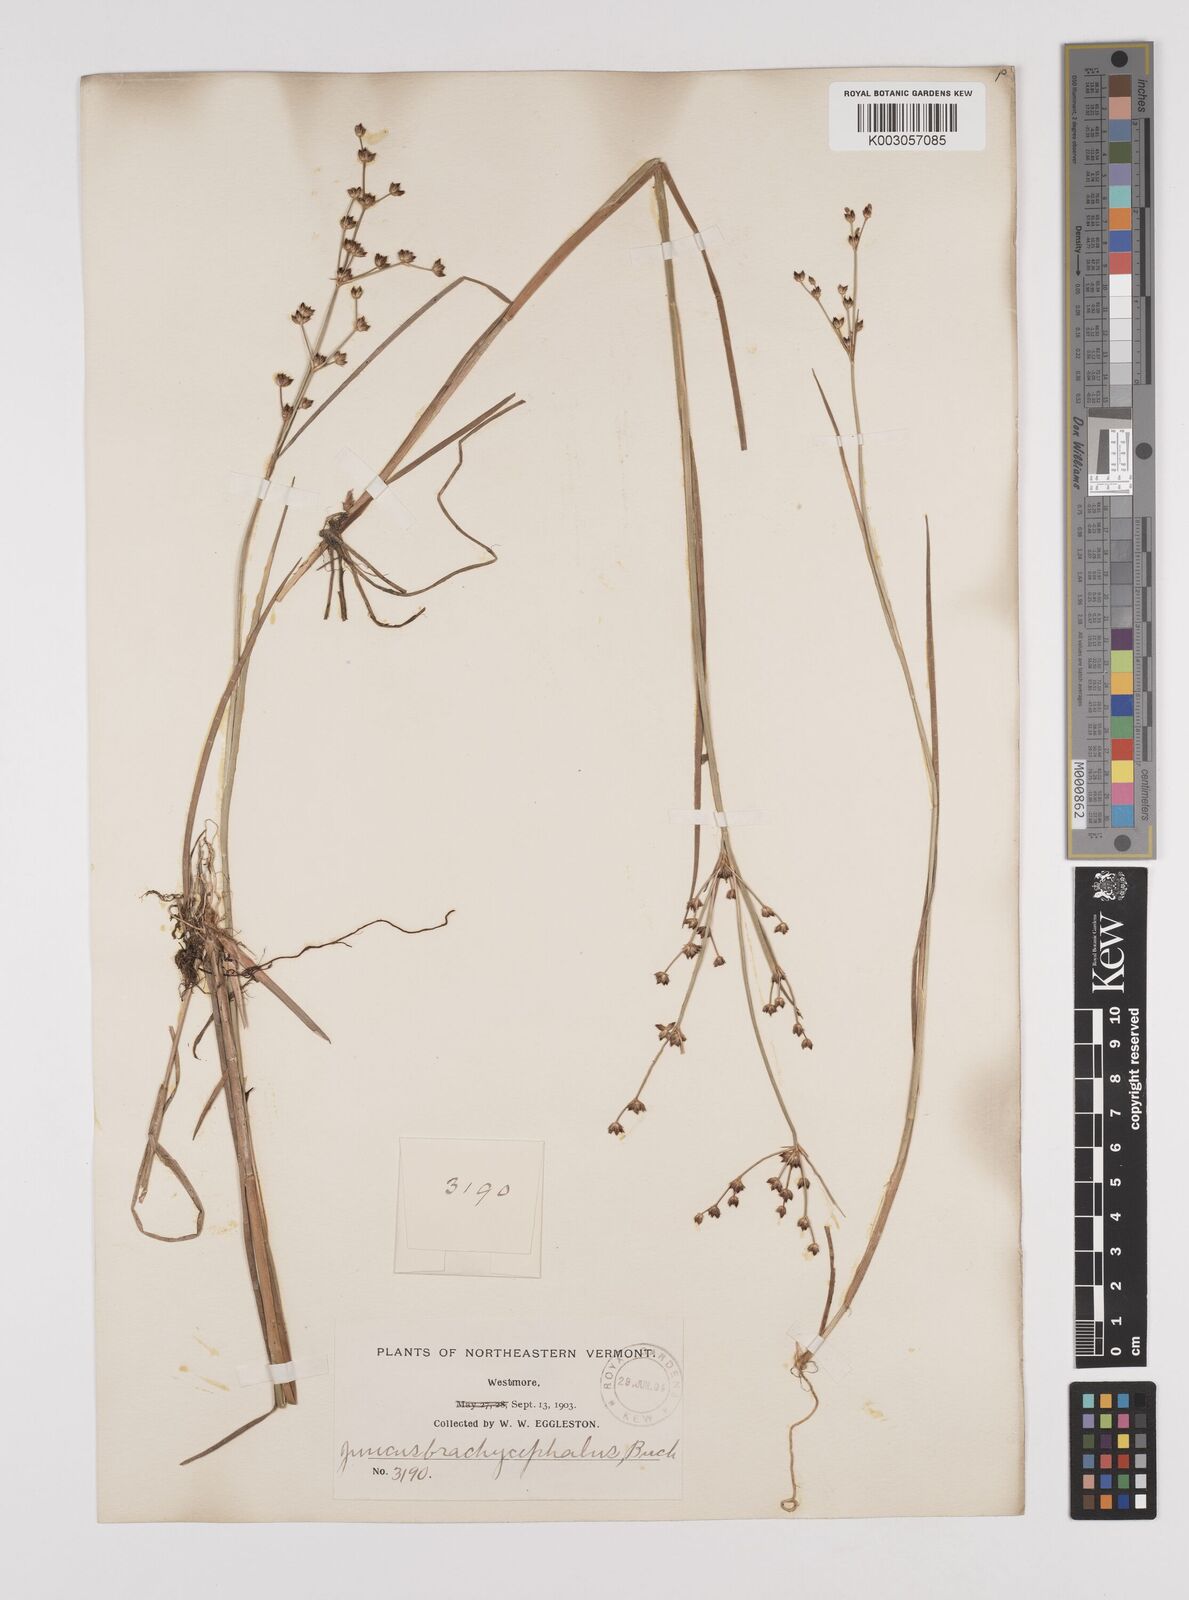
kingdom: Plantae
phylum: Tracheophyta
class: Liliopsida
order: Poales
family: Juncaceae
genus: Juncus
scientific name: Juncus canadensis
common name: Canada rush
